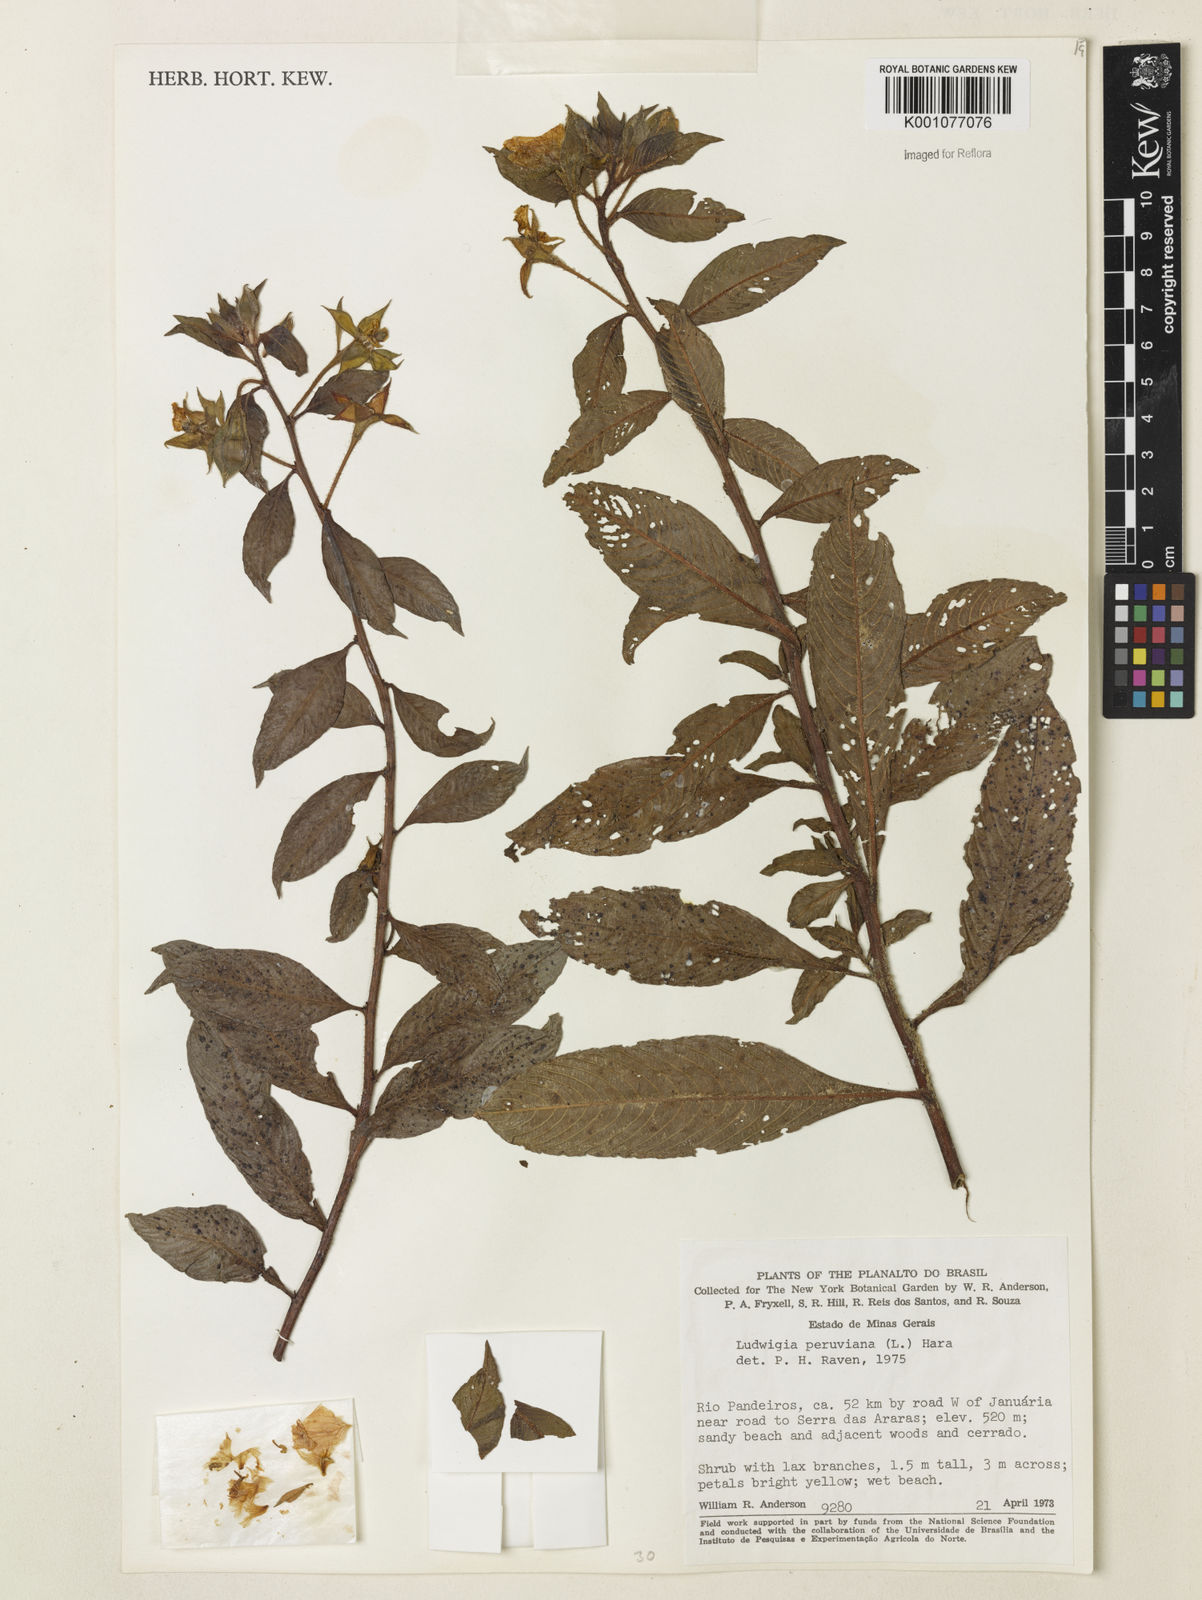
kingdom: Plantae
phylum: Tracheophyta
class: Magnoliopsida
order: Myrtales
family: Onagraceae
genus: Ludwigia
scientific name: Ludwigia peruviana
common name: Peruvian primrose-willow
